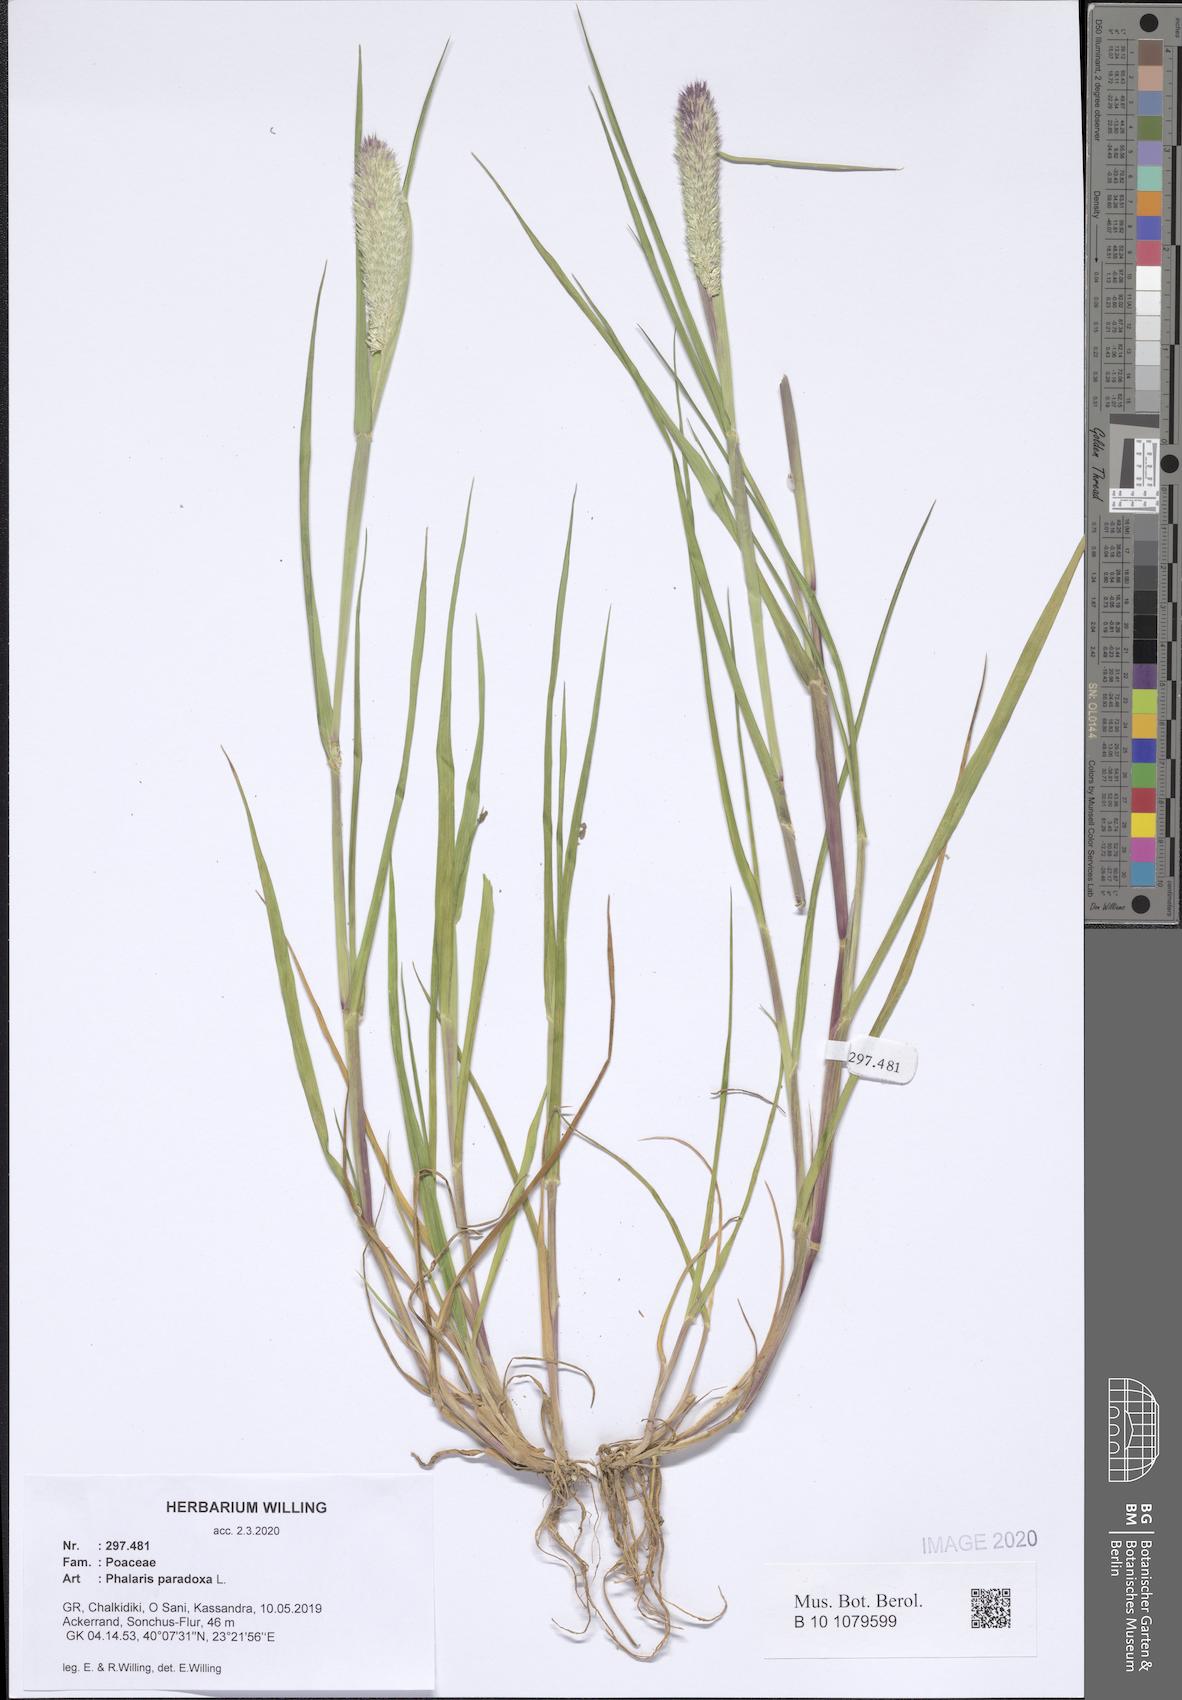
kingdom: Plantae
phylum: Tracheophyta
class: Liliopsida
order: Poales
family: Poaceae
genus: Phalaris
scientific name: Phalaris paradoxa
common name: Awned canary-grass
